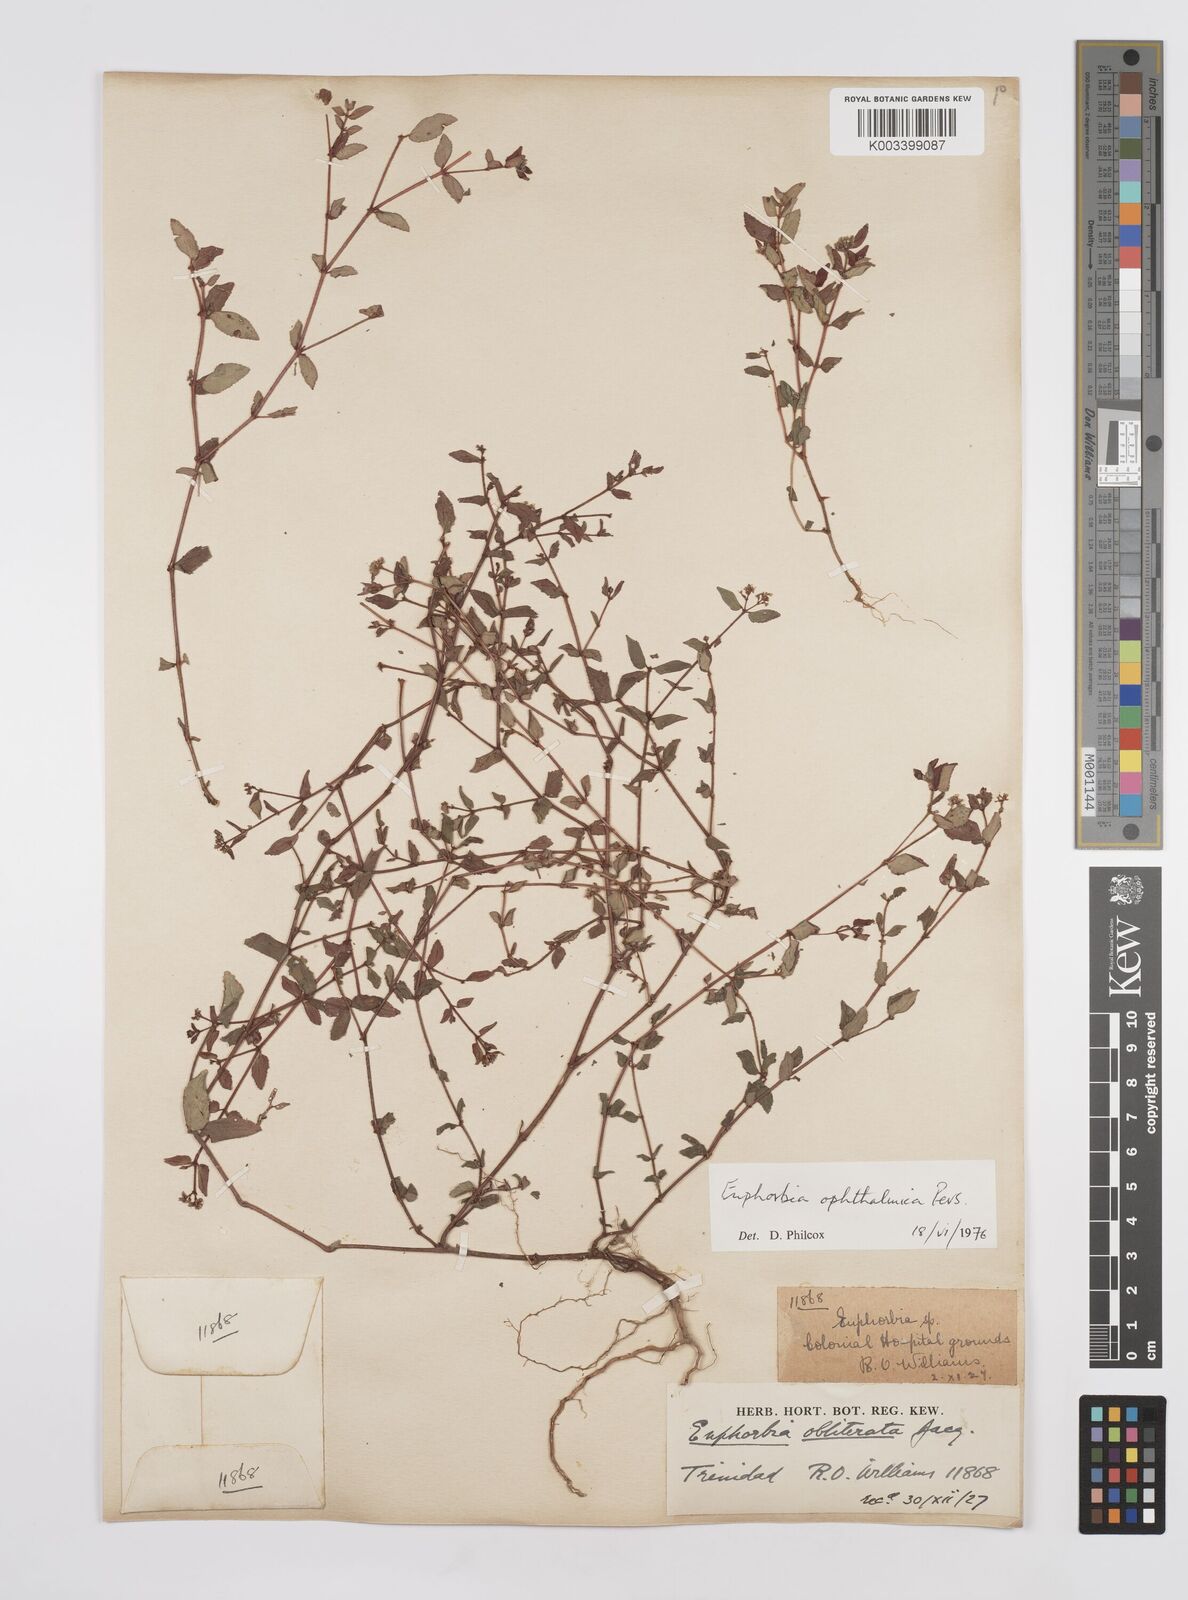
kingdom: Plantae
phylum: Tracheophyta
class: Magnoliopsida
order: Malpighiales
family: Euphorbiaceae
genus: Euphorbia
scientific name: Euphorbia ophthalmica
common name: Florida hammock sandmat
